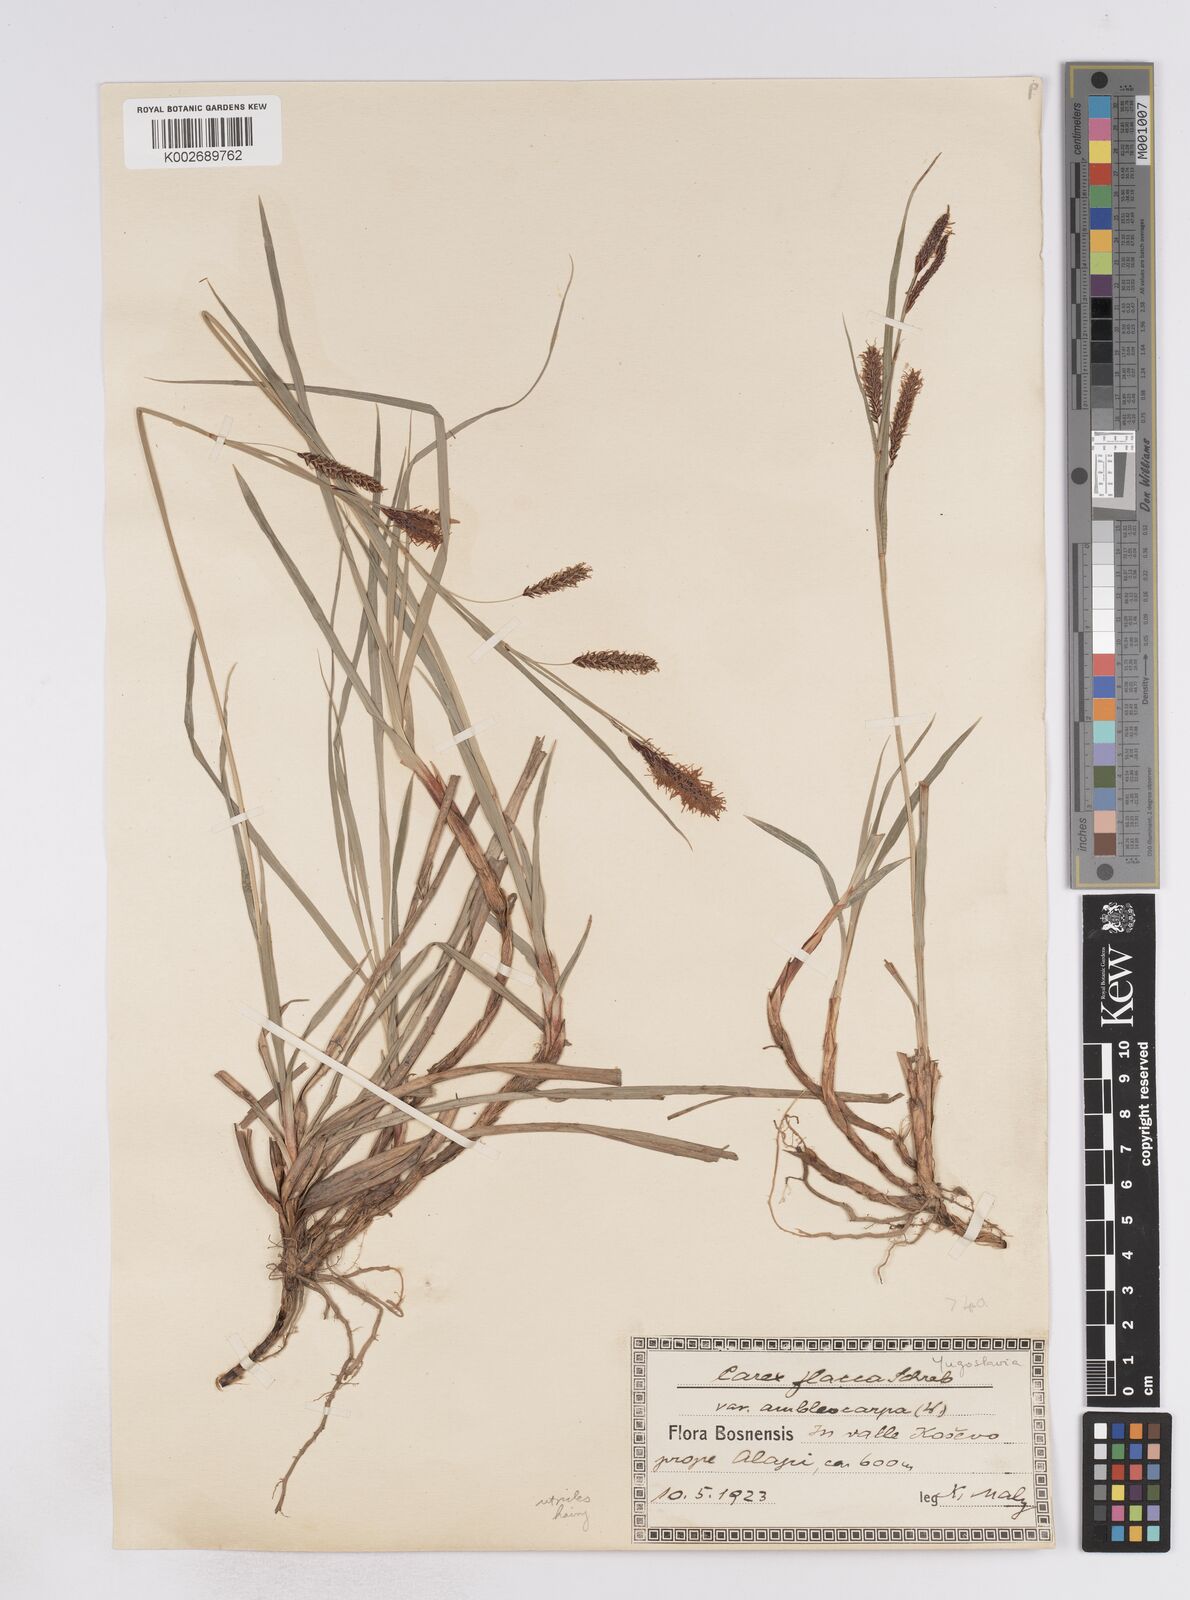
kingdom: Plantae
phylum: Tracheophyta
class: Liliopsida
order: Poales
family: Cyperaceae
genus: Carex
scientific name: Carex flacca
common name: Glaucous sedge
